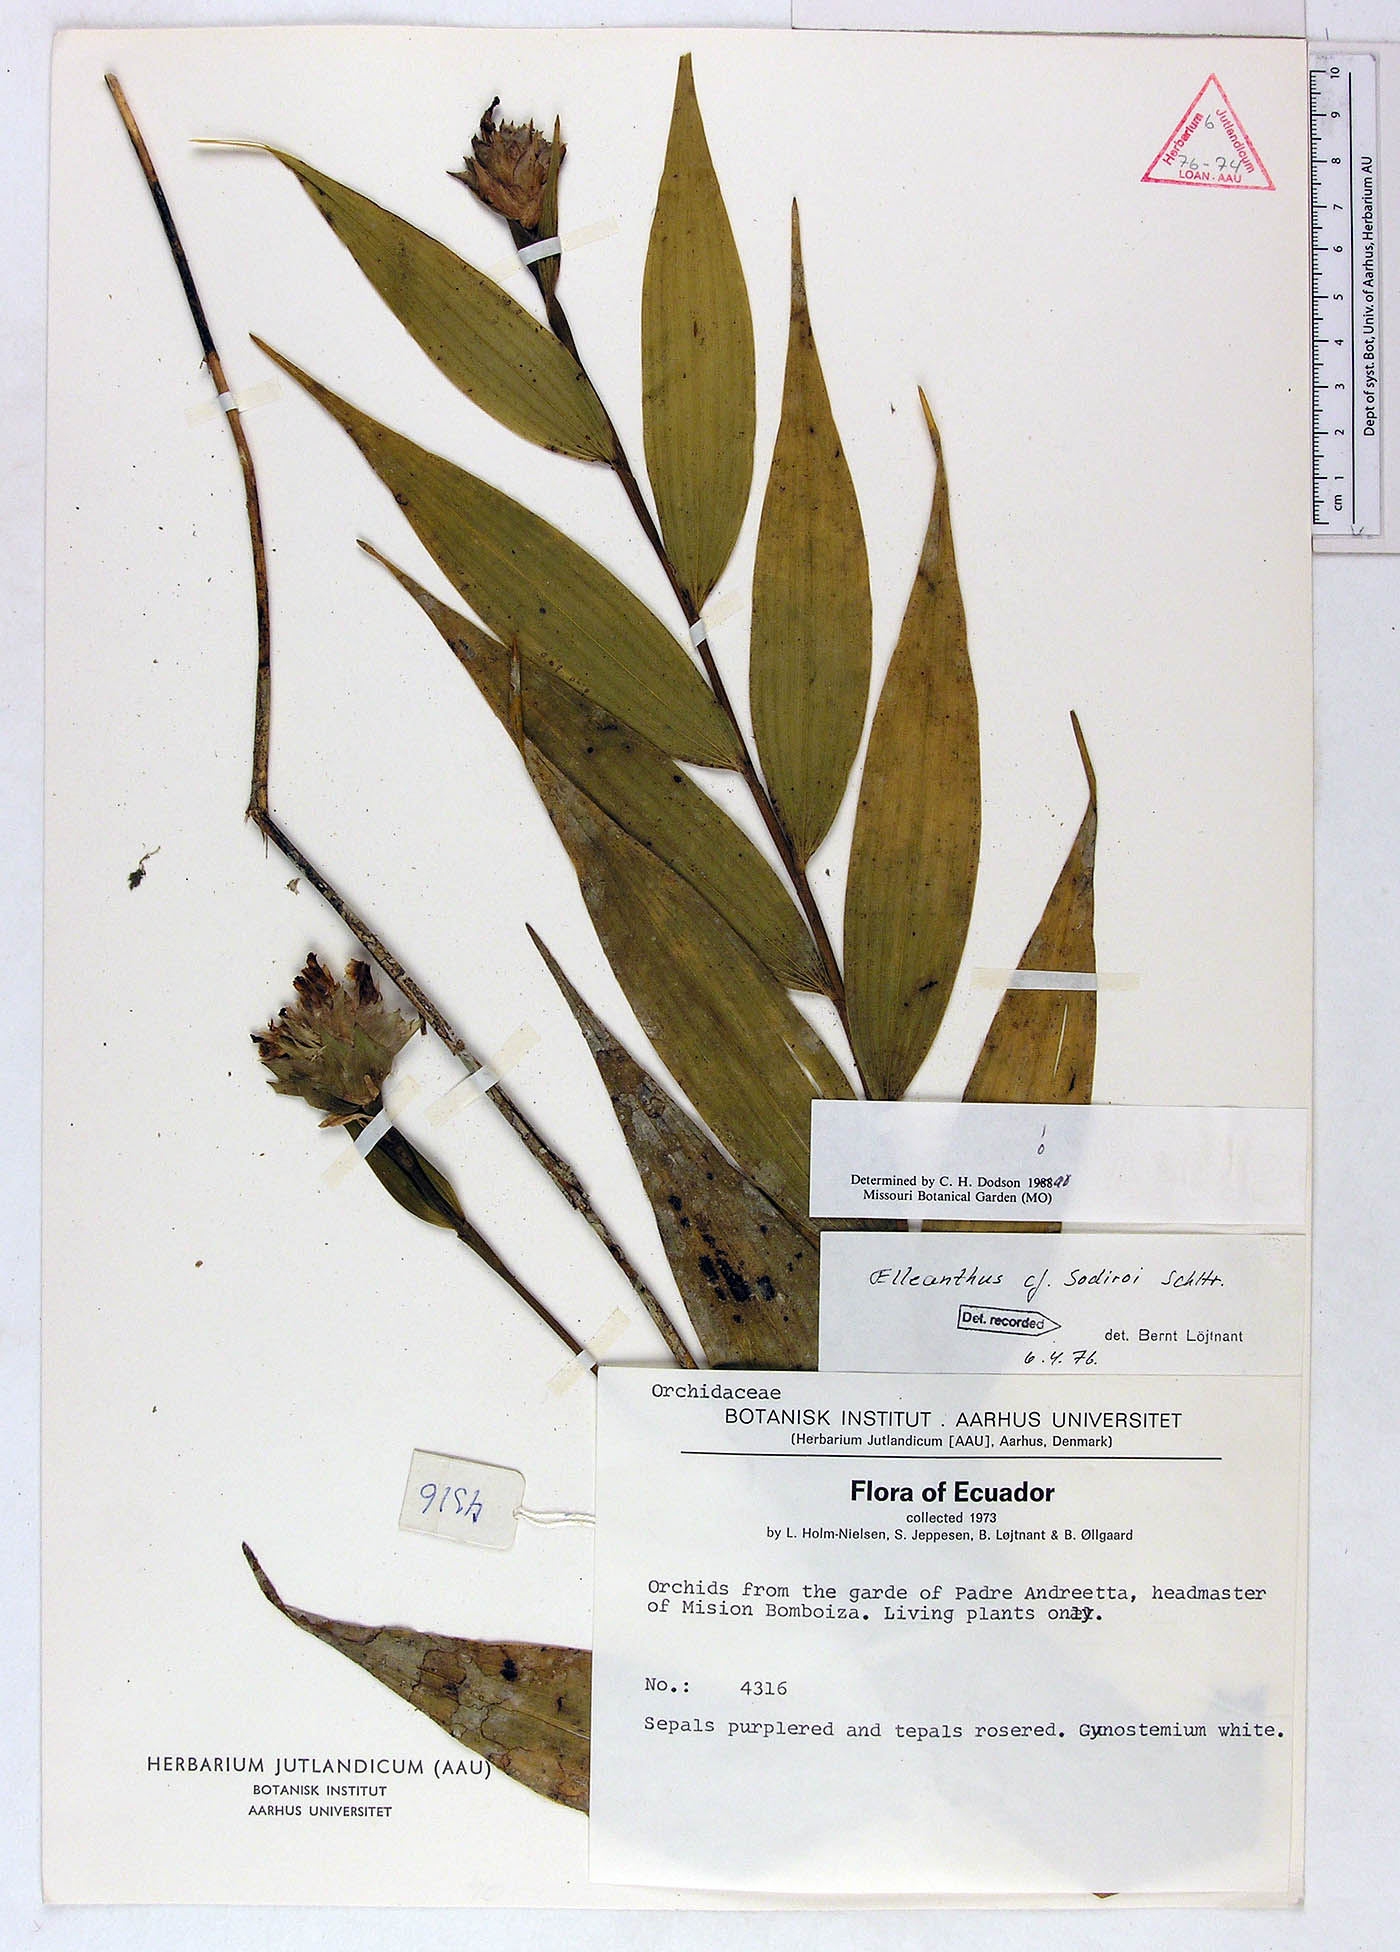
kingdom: Plantae
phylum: Tracheophyta
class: Liliopsida
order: Asparagales
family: Orchidaceae
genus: Elleanthus
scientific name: Elleanthus capitatus
